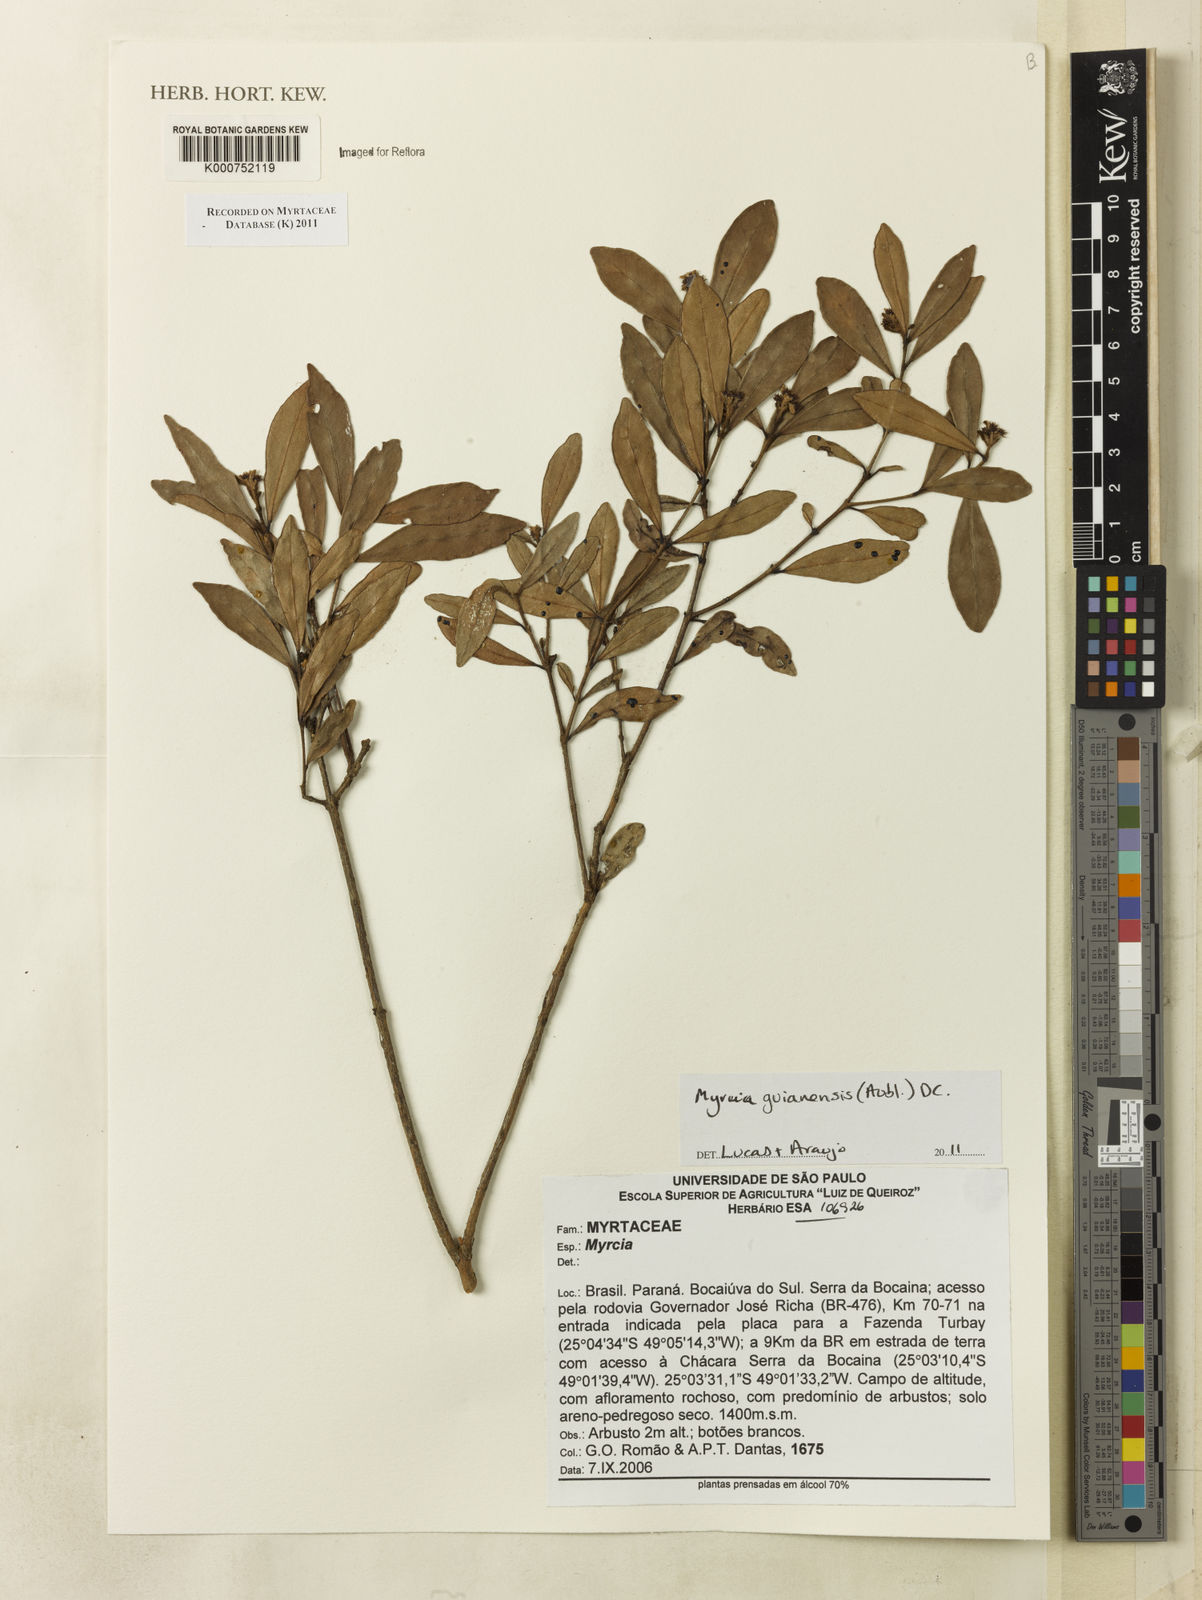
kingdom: Plantae
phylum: Tracheophyta
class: Magnoliopsida
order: Myrtales
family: Myrtaceae
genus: Myrcia
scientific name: Myrcia guianensis
